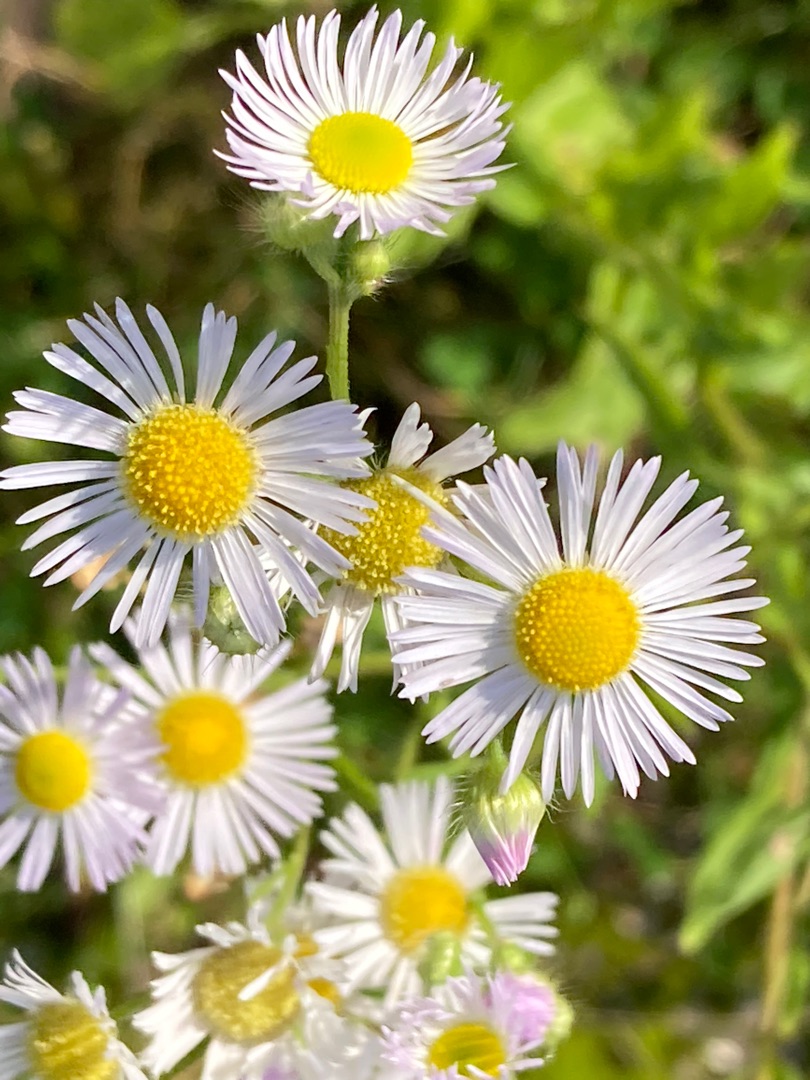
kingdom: Plantae
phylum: Tracheophyta
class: Magnoliopsida
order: Asterales
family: Asteraceae
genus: Erigeron
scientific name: Erigeron annuus
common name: Smalstråle
